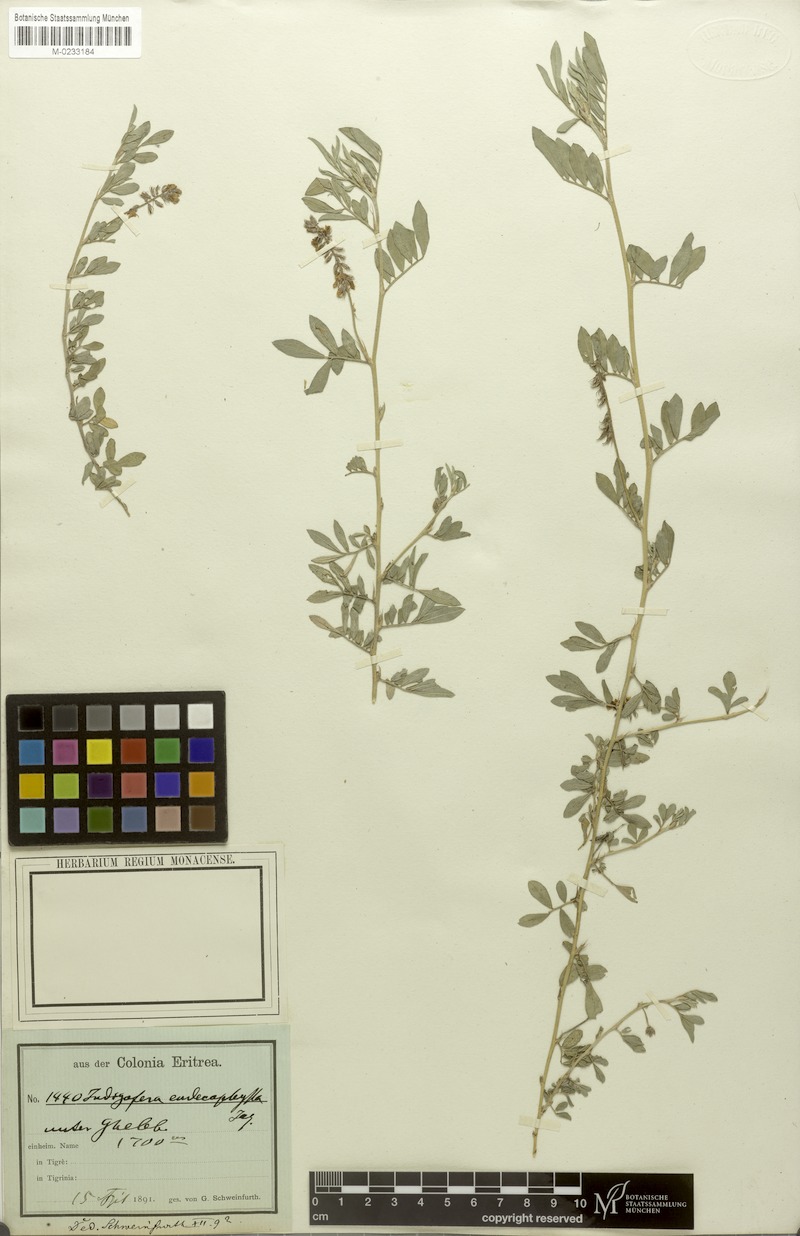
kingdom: Plantae
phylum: Tracheophyta
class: Magnoliopsida
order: Fabales
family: Fabaceae
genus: Indigofera
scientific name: Indigofera hendecaphylla
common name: Trailing indigo
